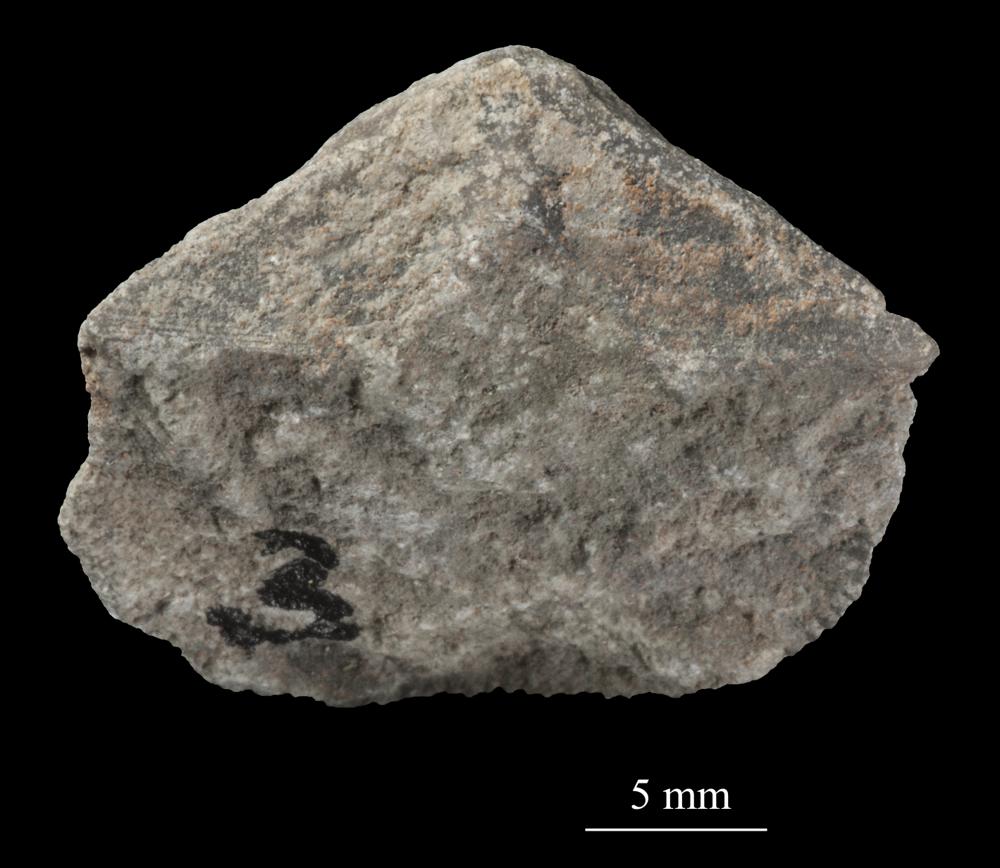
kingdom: Animalia
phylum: Brachiopoda
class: Rhynchonellata
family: Clitambonitidae
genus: Clitambonites
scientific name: Clitambonites squamatus
